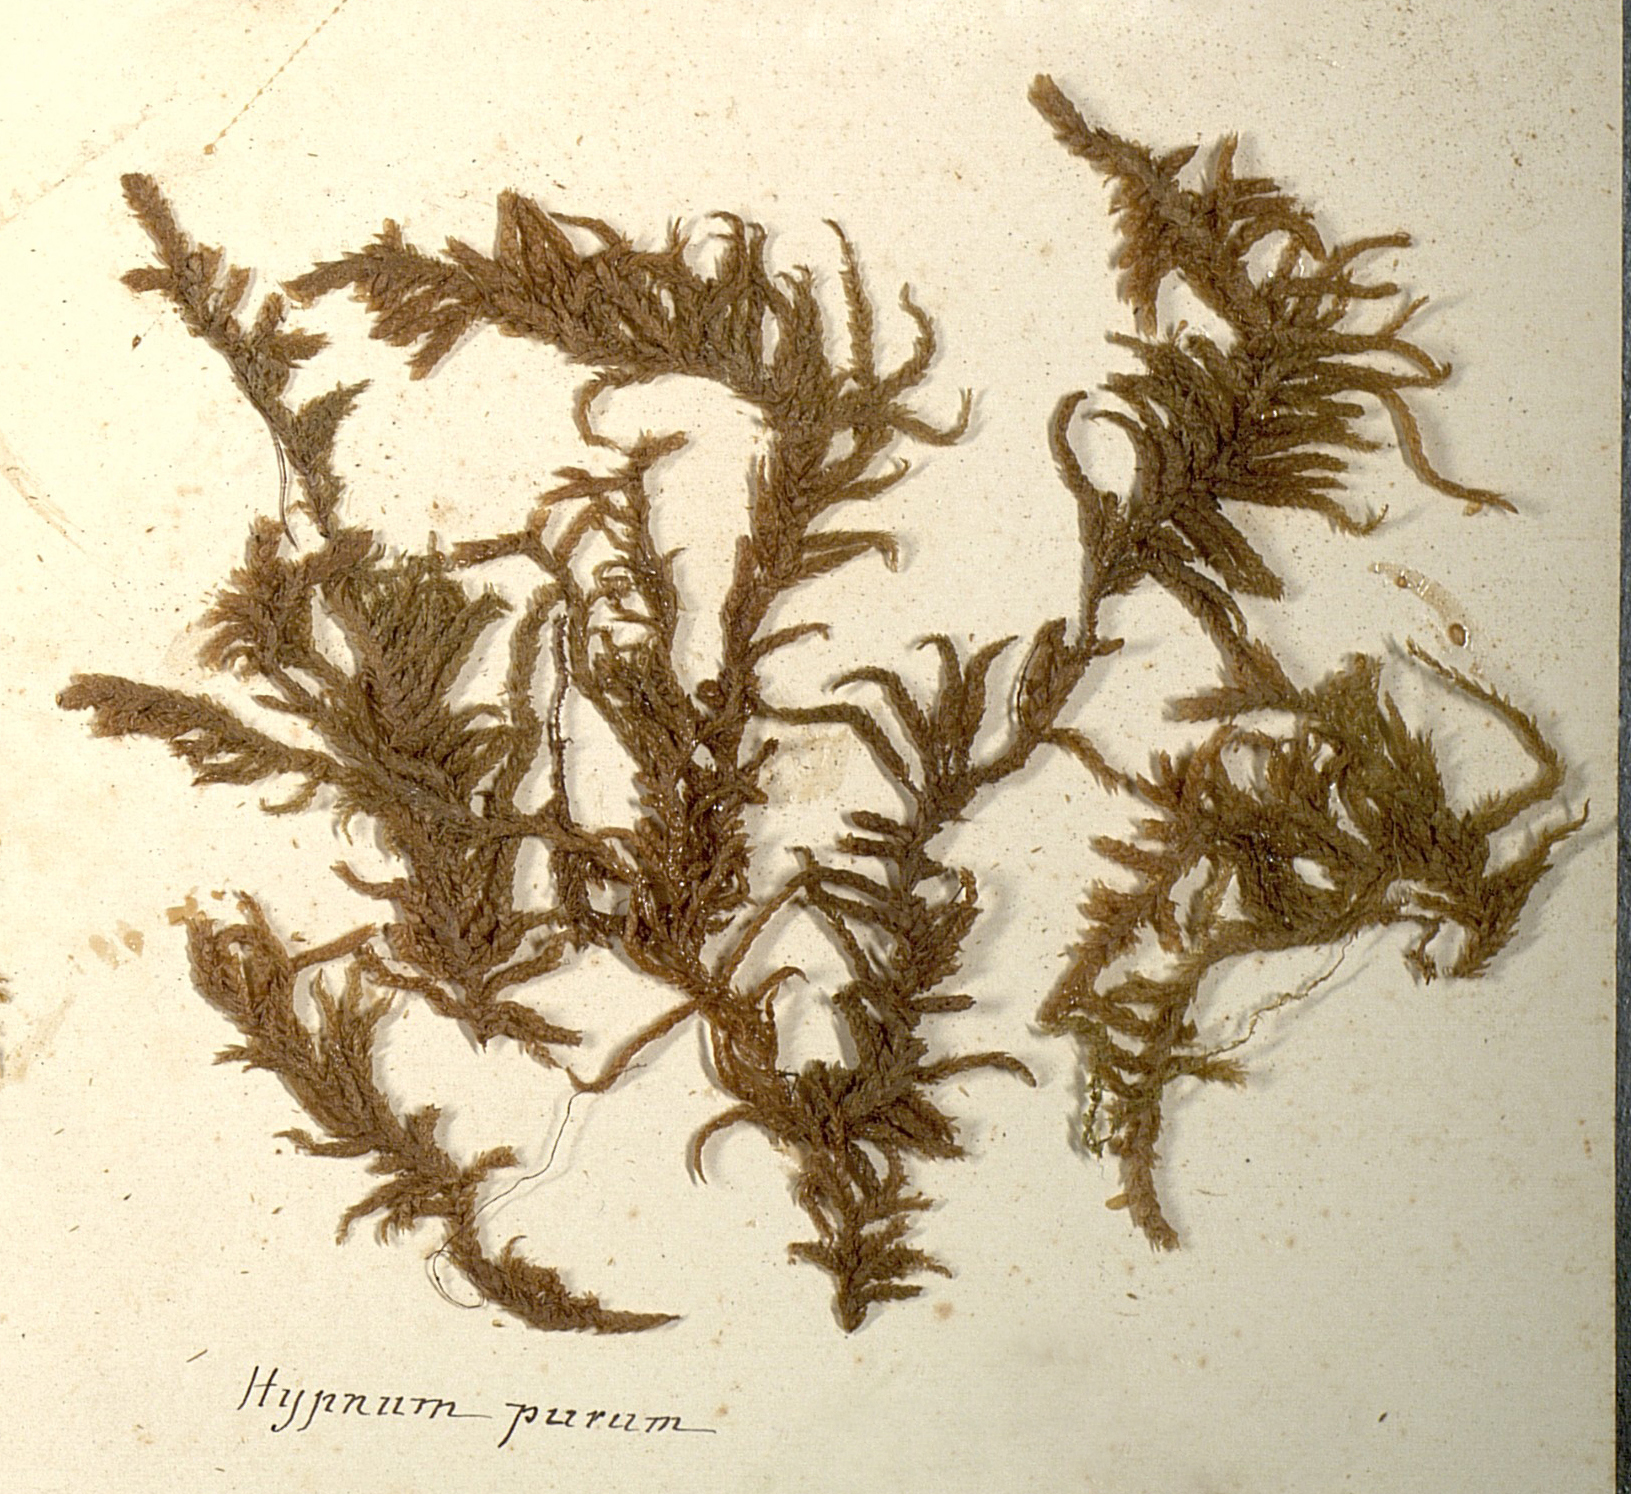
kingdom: Plantae
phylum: Bryophyta
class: Bryopsida
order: Hypnales
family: Brachytheciaceae
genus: Pseudoscleropodium
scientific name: Pseudoscleropodium purum
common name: Neat feather-moss
